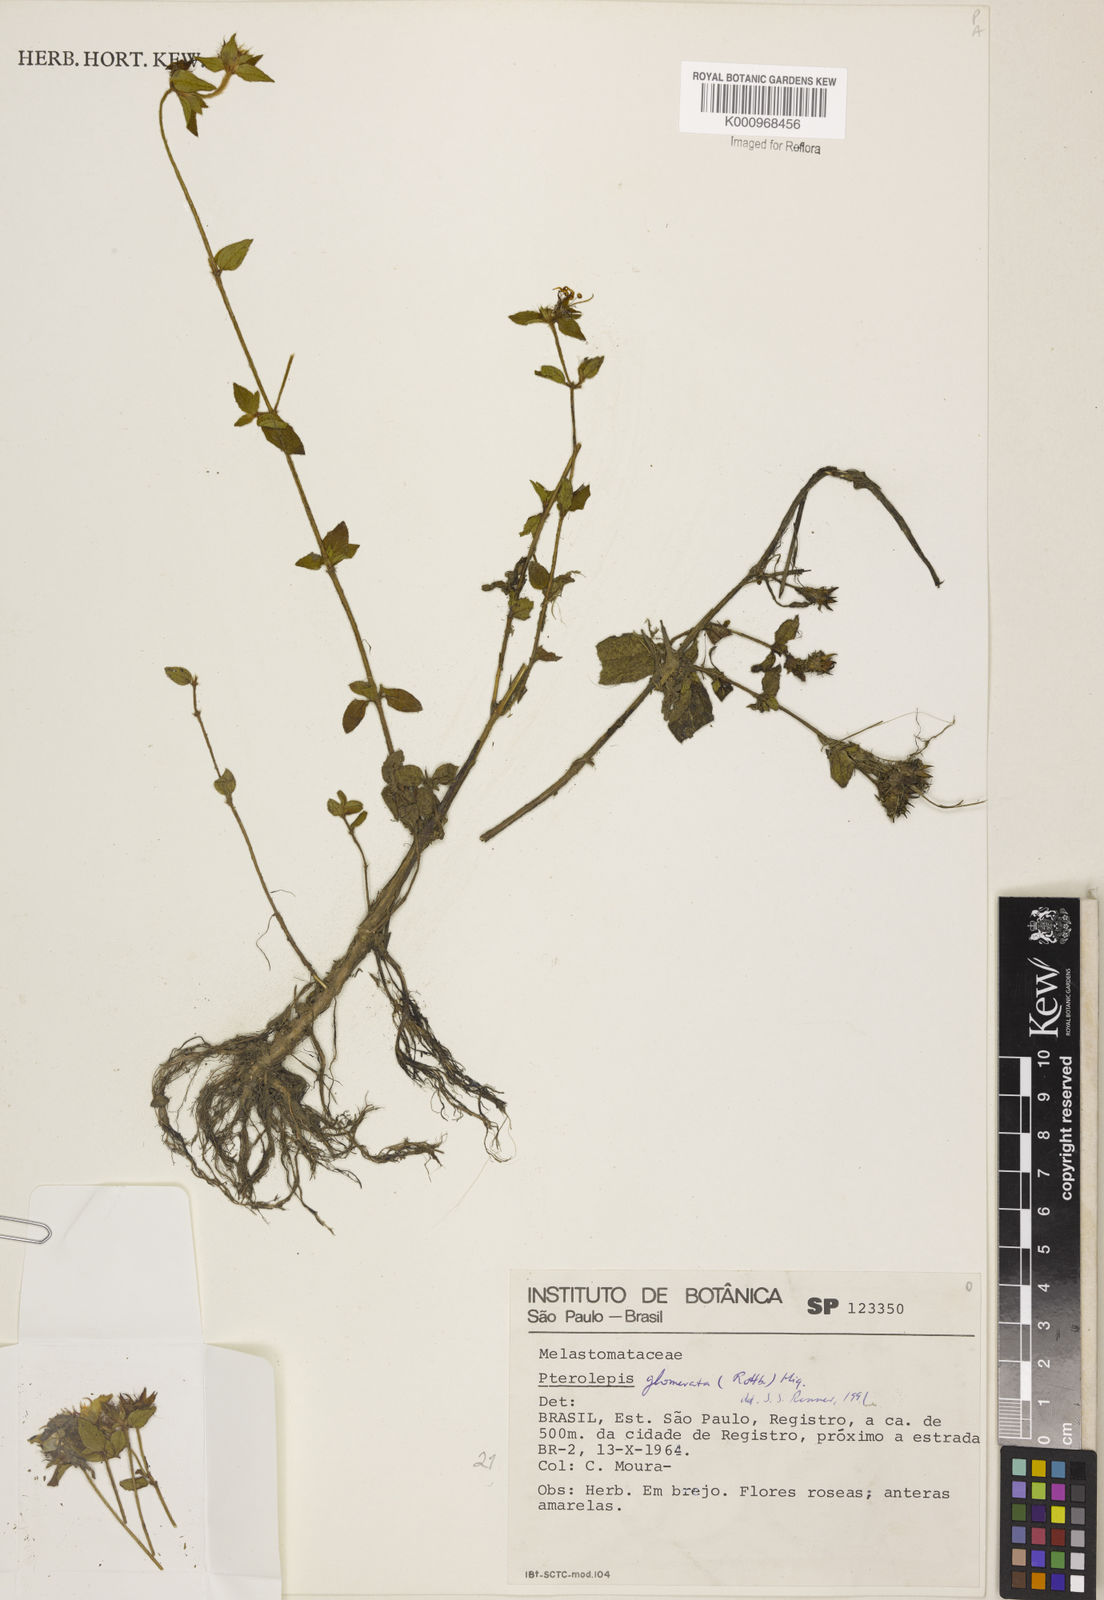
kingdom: Plantae
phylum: Tracheophyta
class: Magnoliopsida
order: Myrtales
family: Melastomataceae
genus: Pterolepis
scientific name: Pterolepis glomerata
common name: False meadowbeauty
